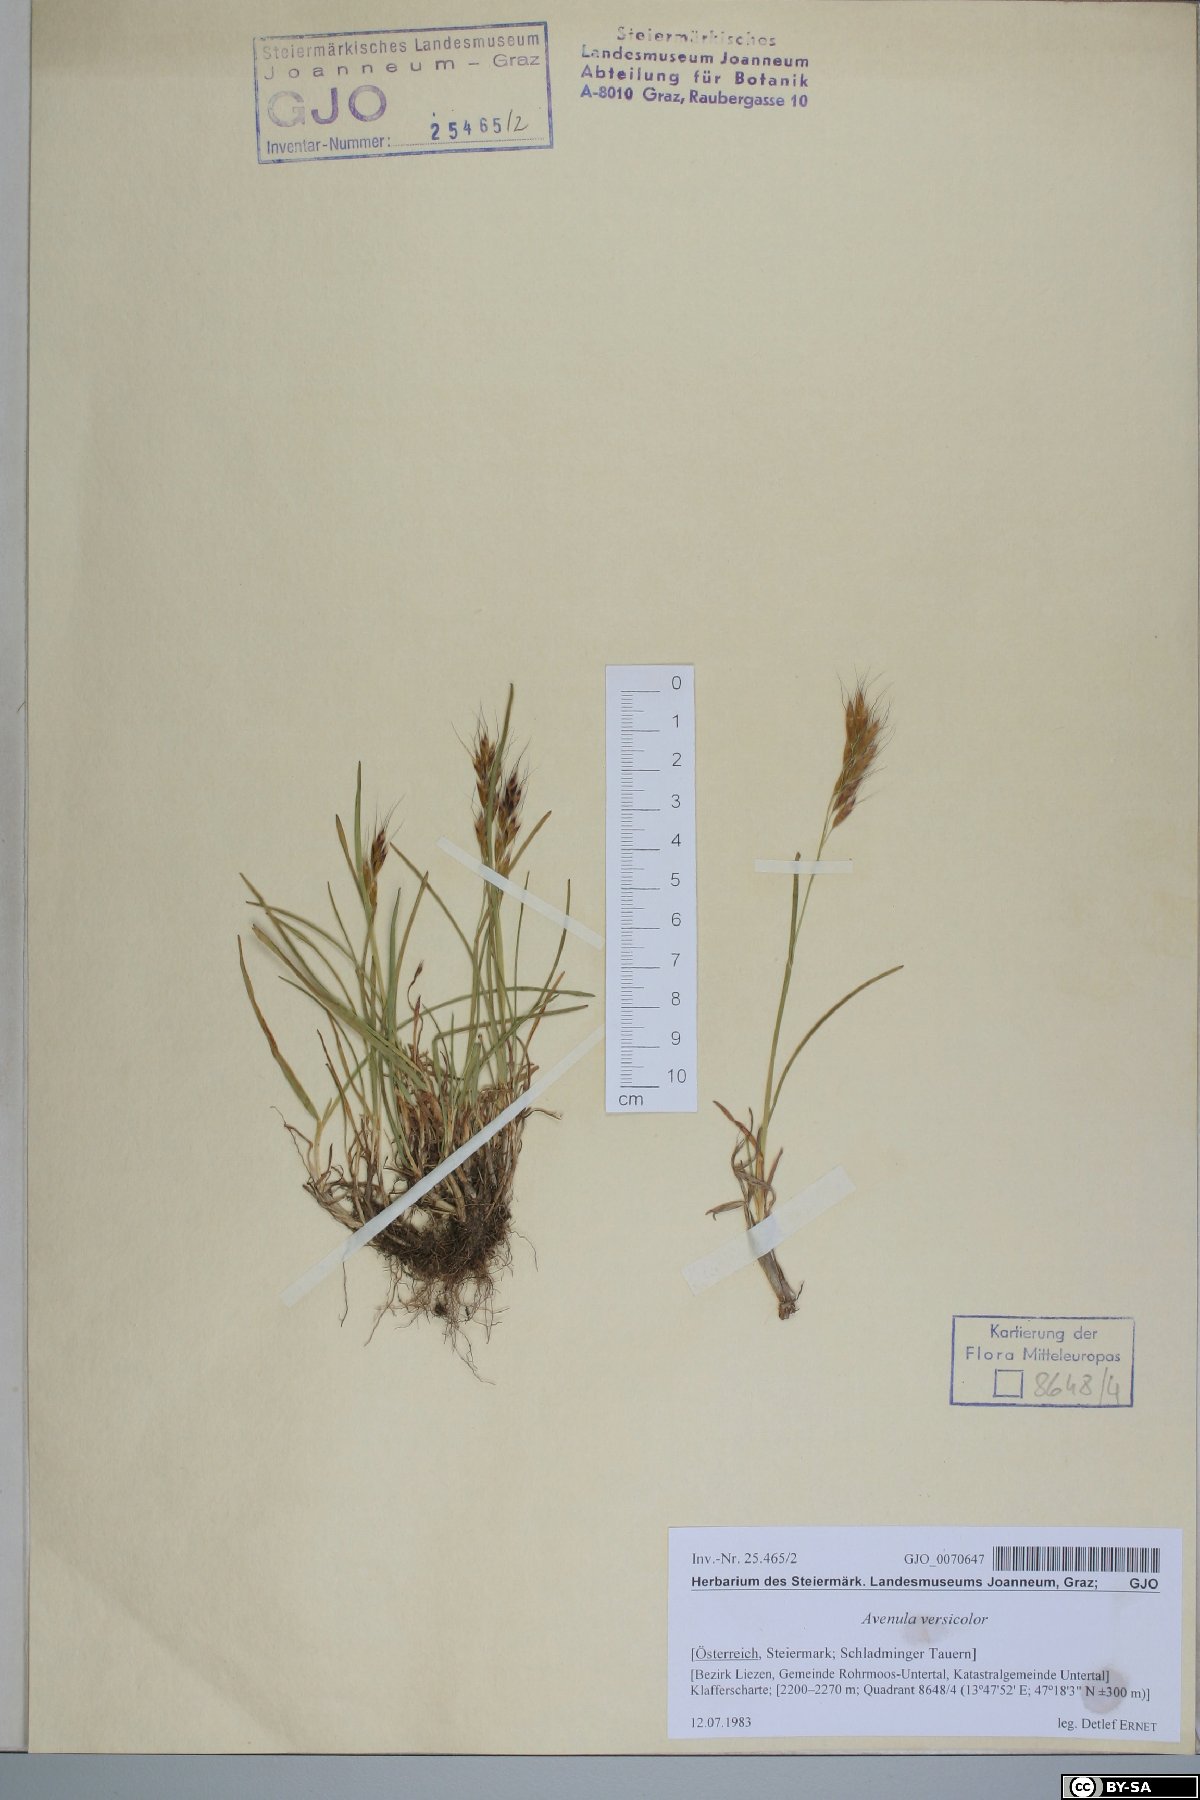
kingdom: Plantae
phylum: Tracheophyta
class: Liliopsida
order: Poales
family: Poaceae
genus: Helictochloa
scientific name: Helictochloa versicolor
